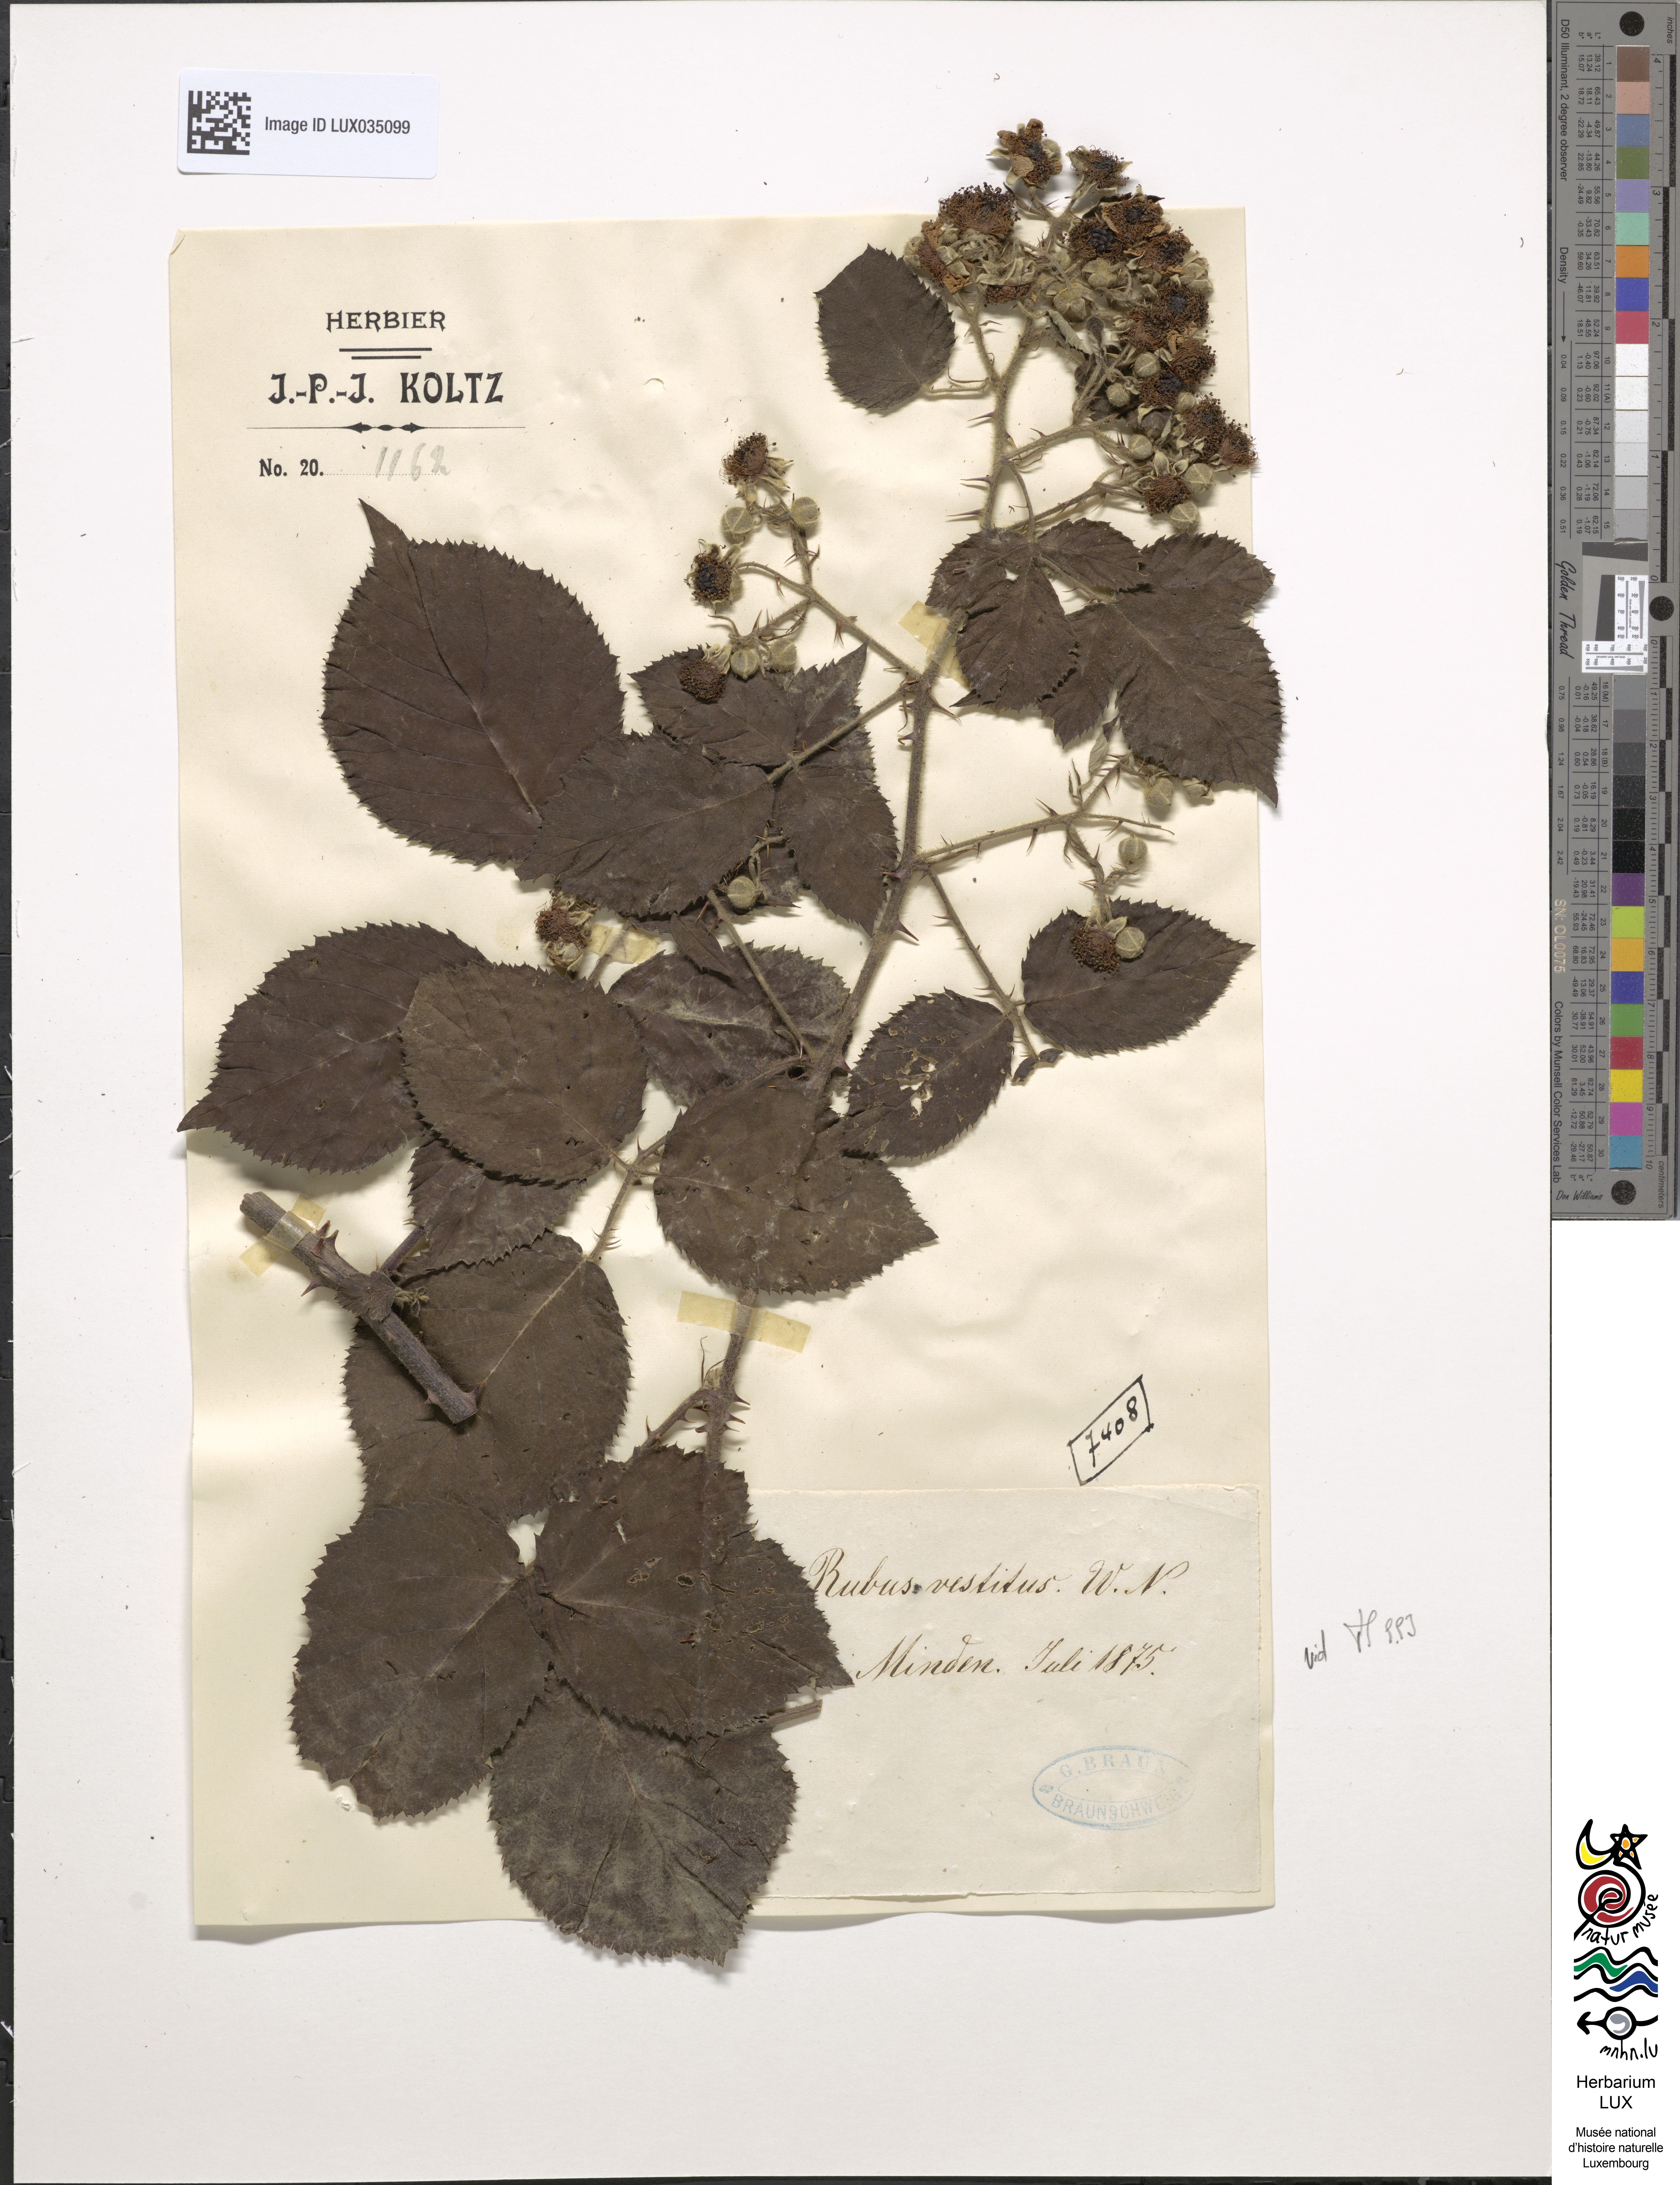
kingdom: Plantae
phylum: Tracheophyta
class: Magnoliopsida
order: Rosales
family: Rosaceae
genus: Rubus
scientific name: Rubus vestitus
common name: European blackberry
